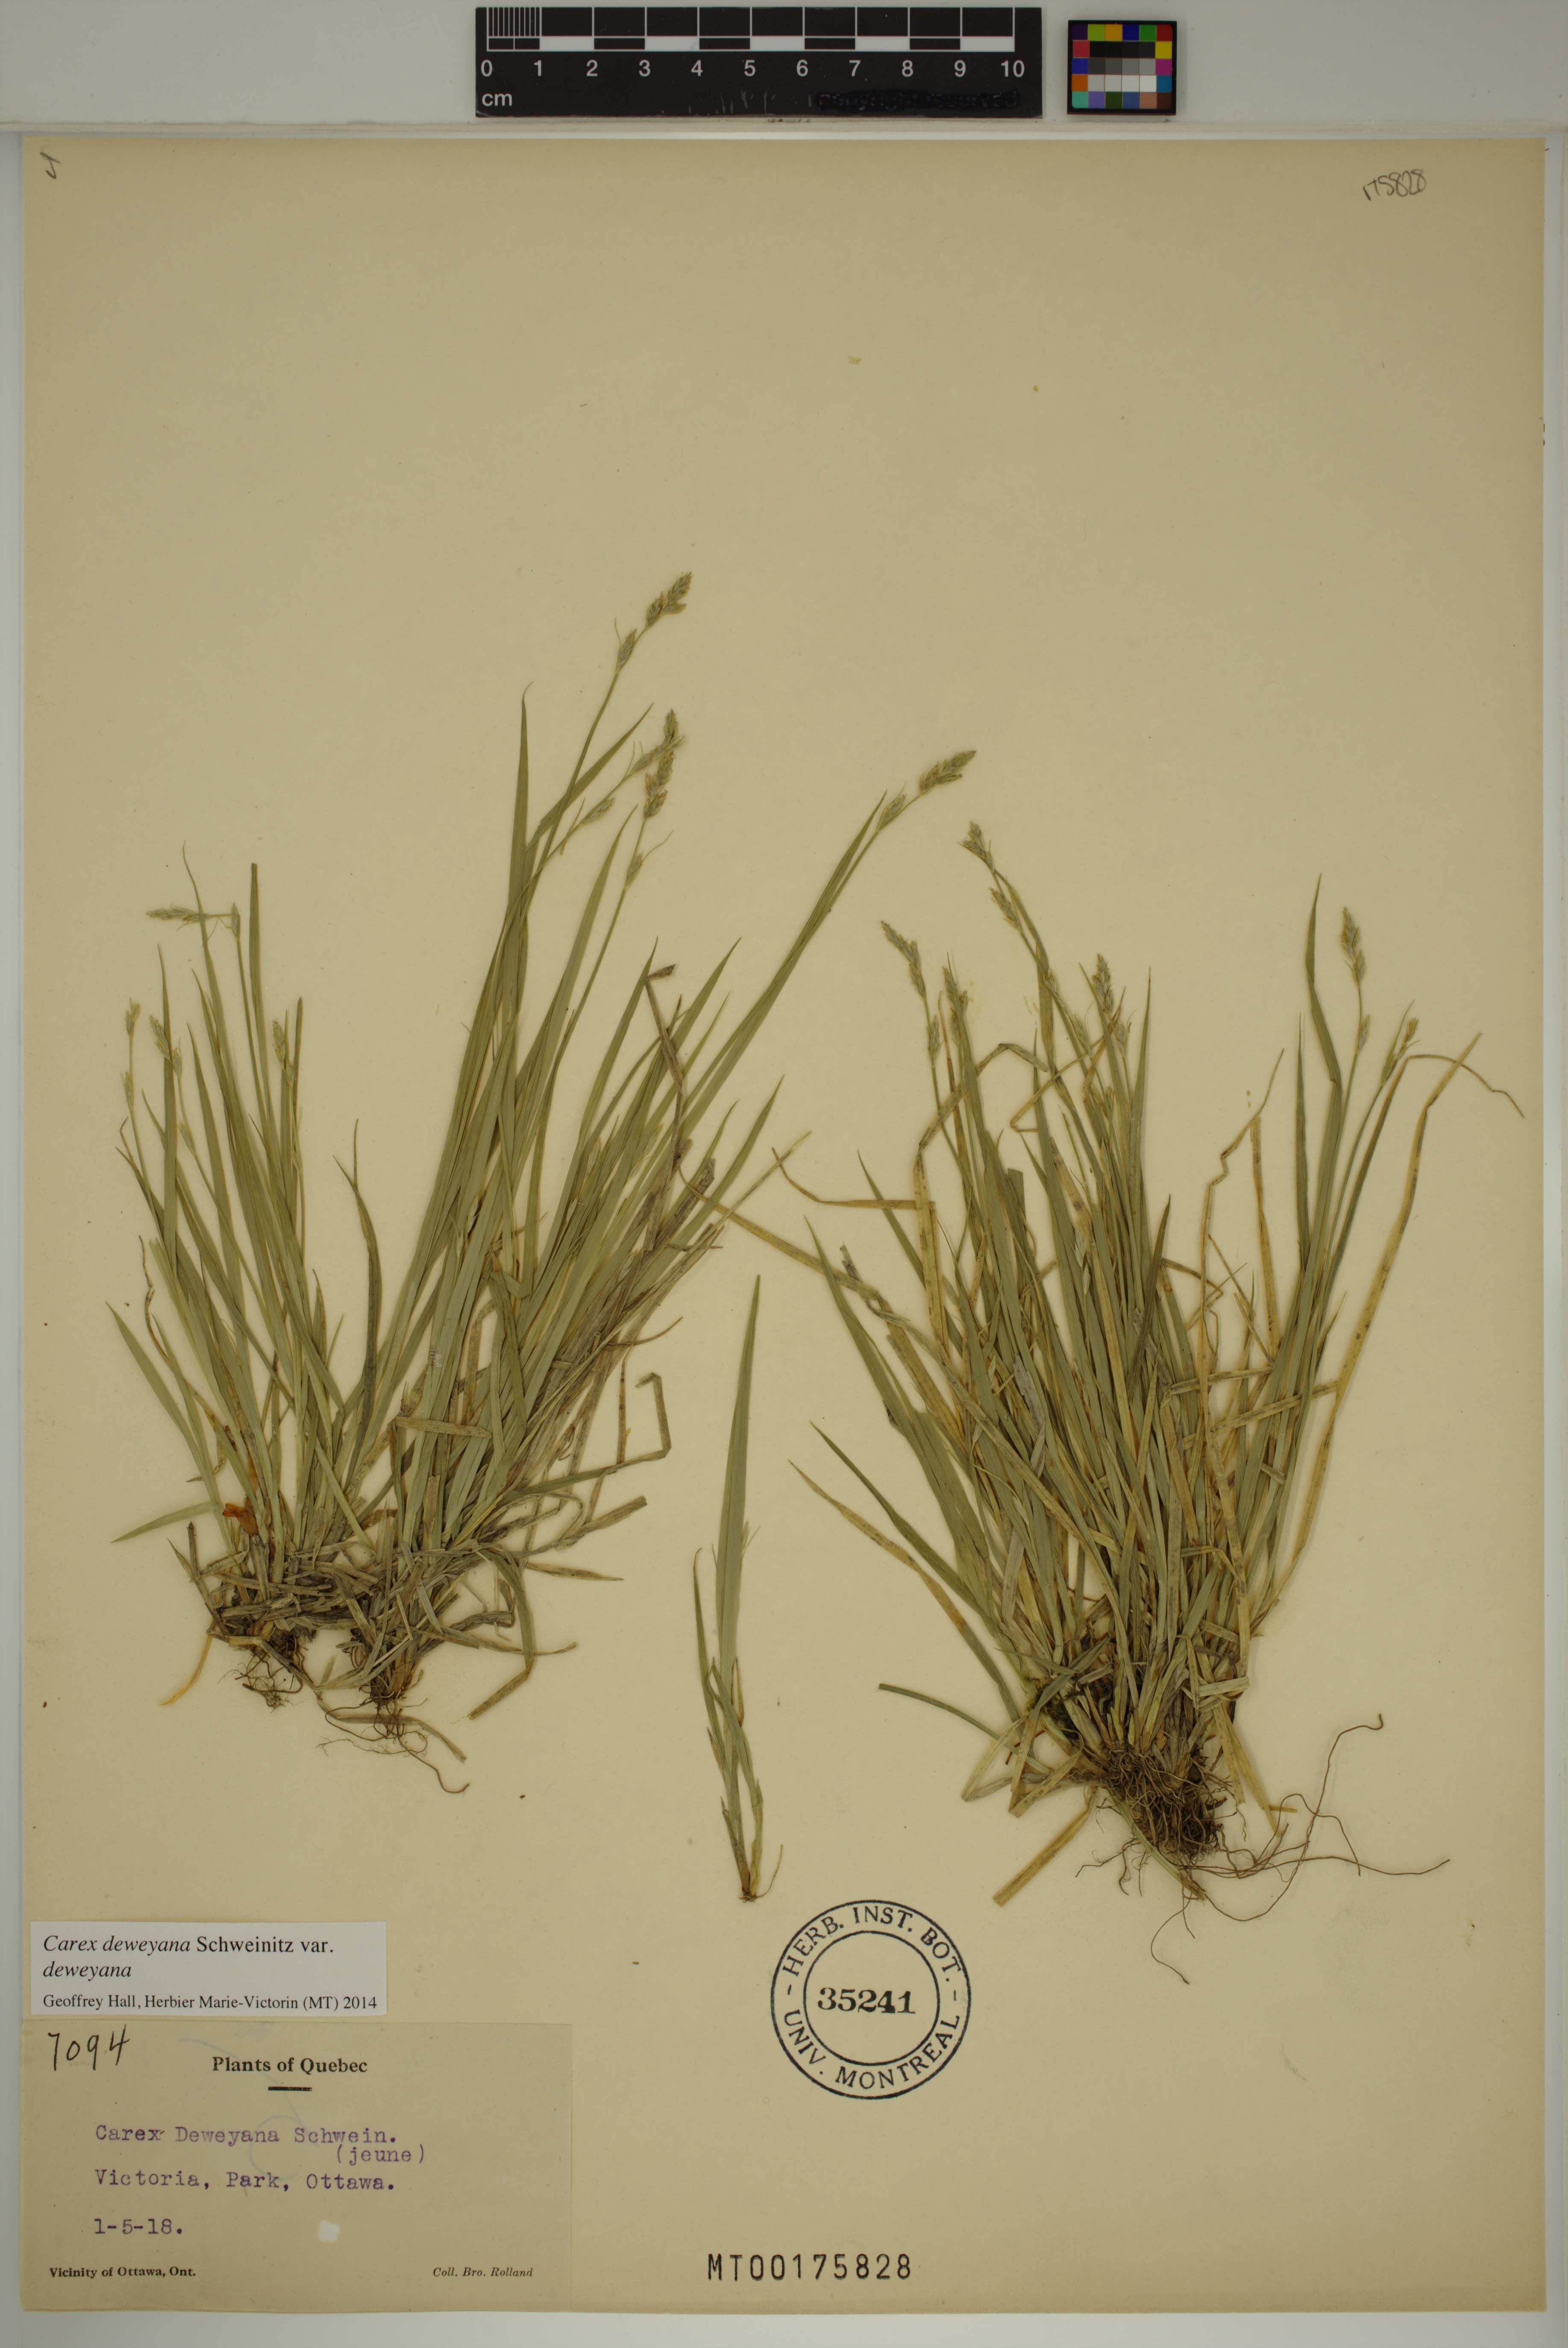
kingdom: Plantae
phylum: Tracheophyta
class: Liliopsida
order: Poales
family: Cyperaceae
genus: Carex
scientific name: Carex deweyana
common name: Dewey's sedge
